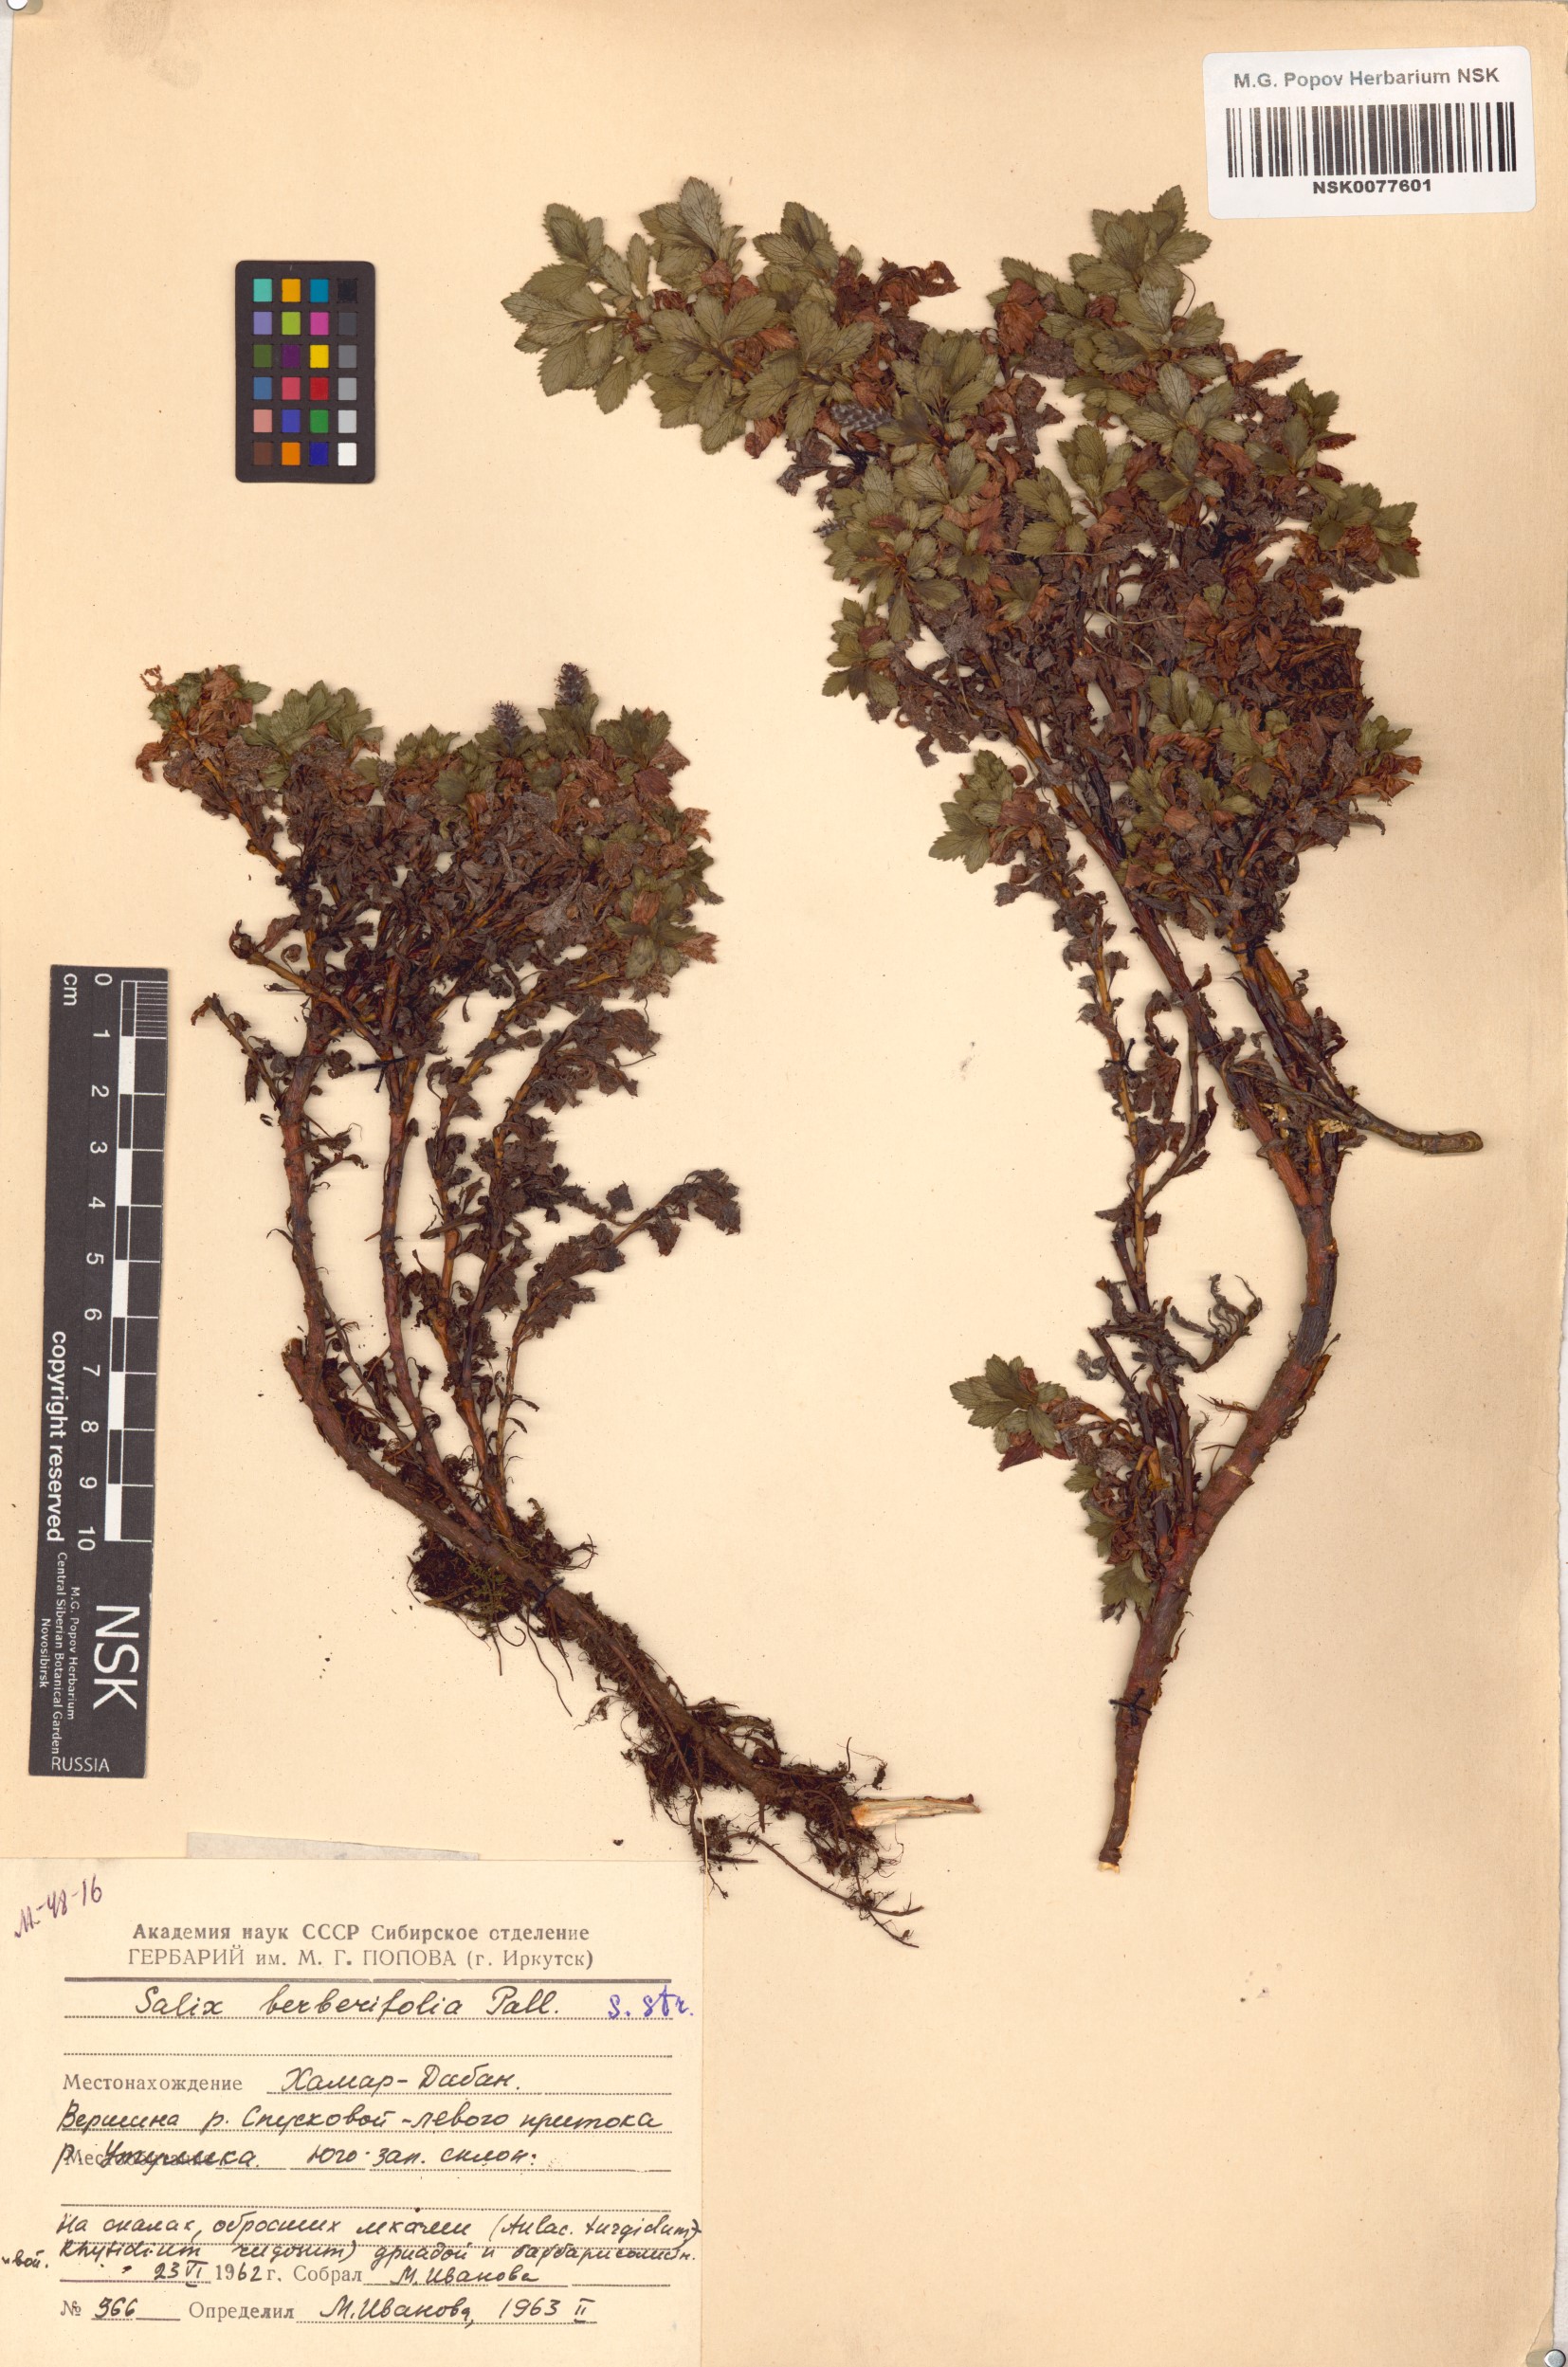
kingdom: Plantae
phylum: Tracheophyta
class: Magnoliopsida
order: Malpighiales
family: Salicaceae
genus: Salix
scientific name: Salix berberifolia
